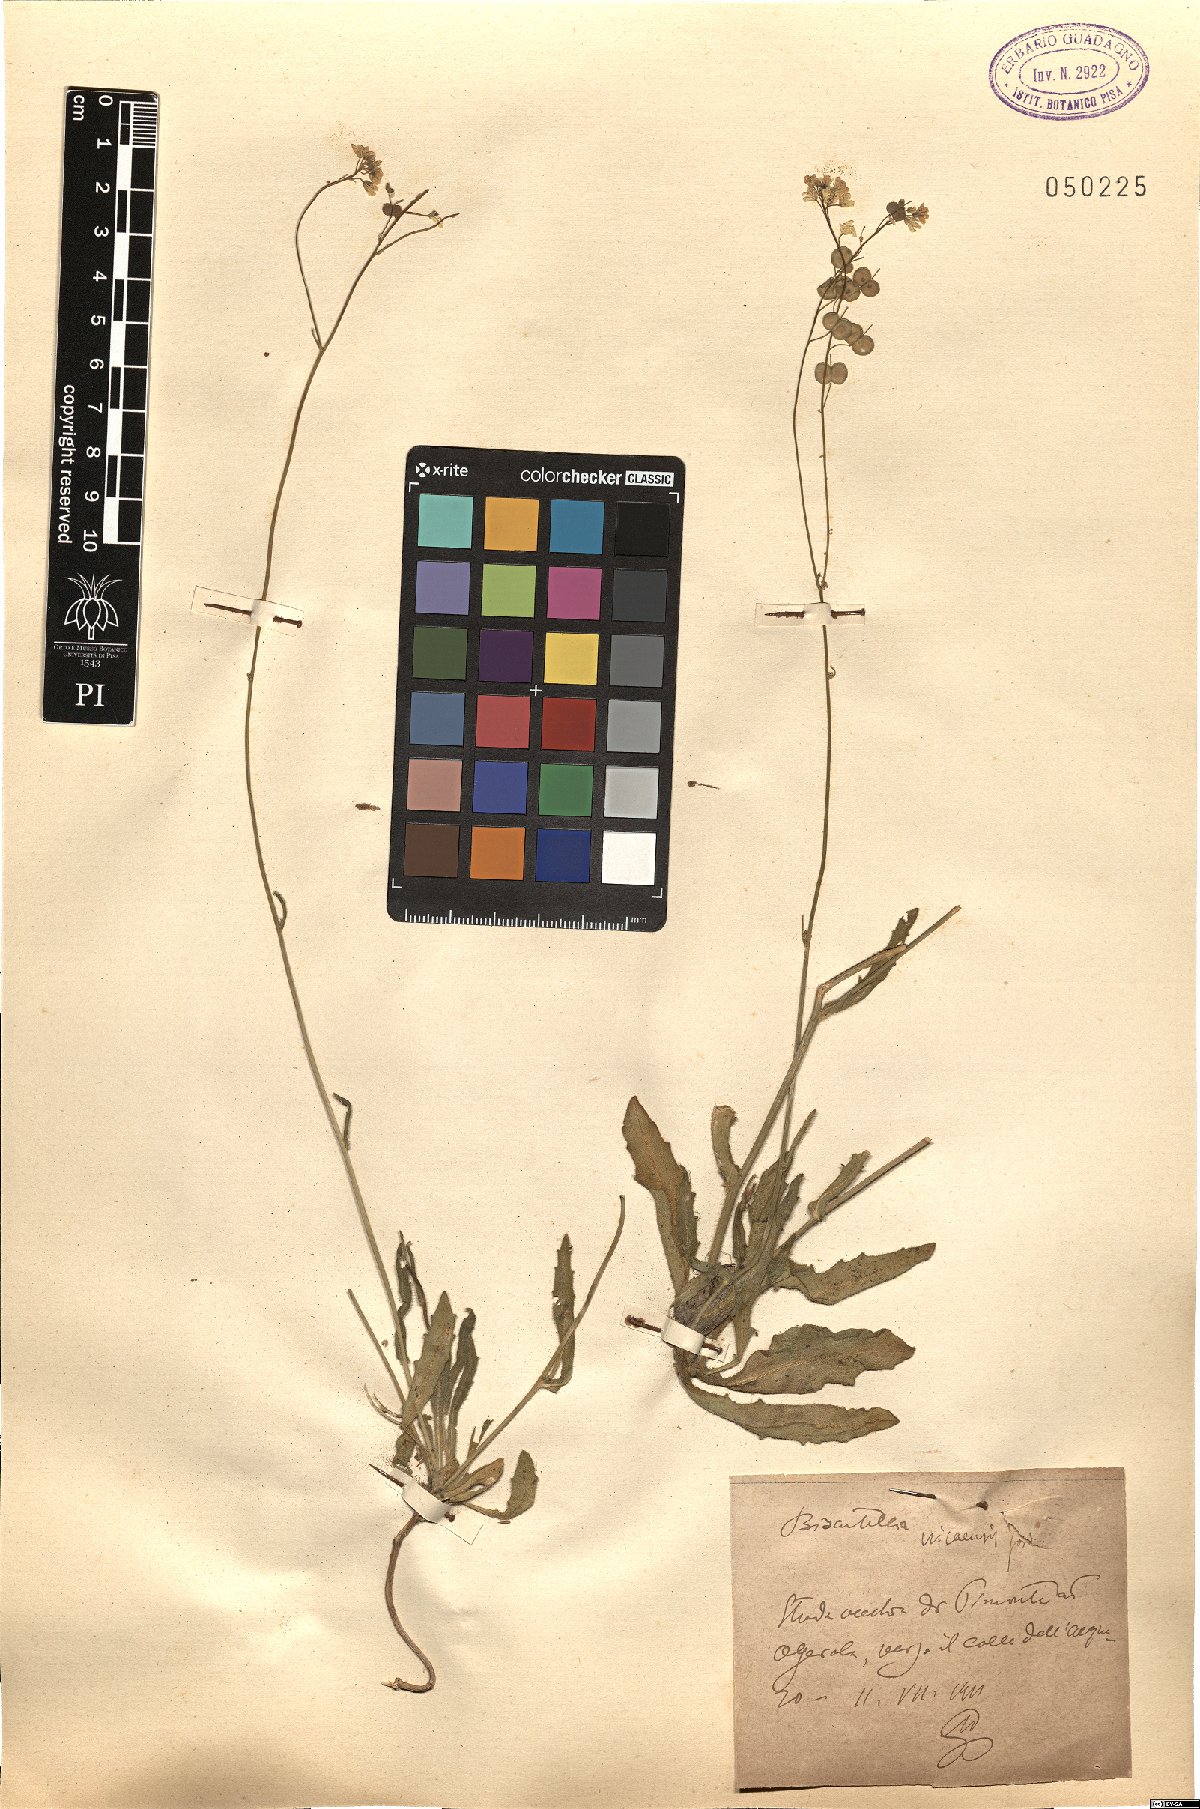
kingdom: Plantae
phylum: Tracheophyta
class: Magnoliopsida
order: Brassicales
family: Brassicaceae
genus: Biscutella
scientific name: Biscutella ambigua
